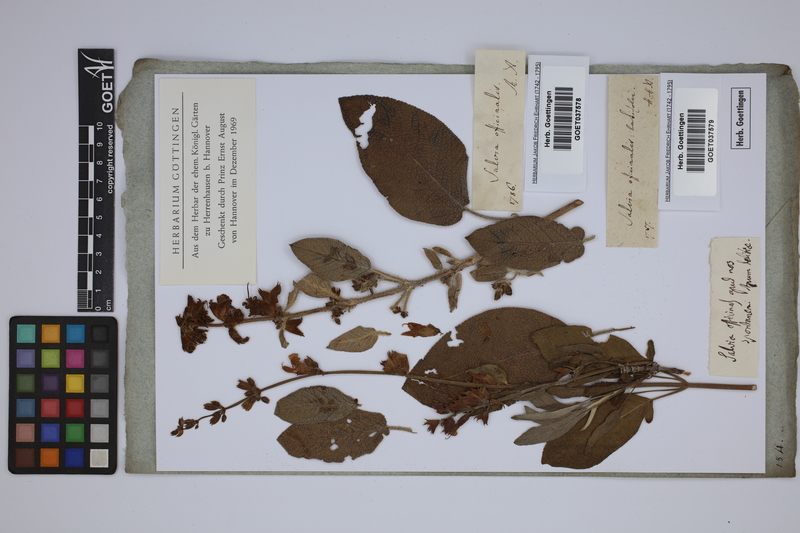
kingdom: Plantae
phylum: Tracheophyta
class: Magnoliopsida
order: Lamiales
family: Lamiaceae
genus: Salvia
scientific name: Salvia officinalis
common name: Sage
